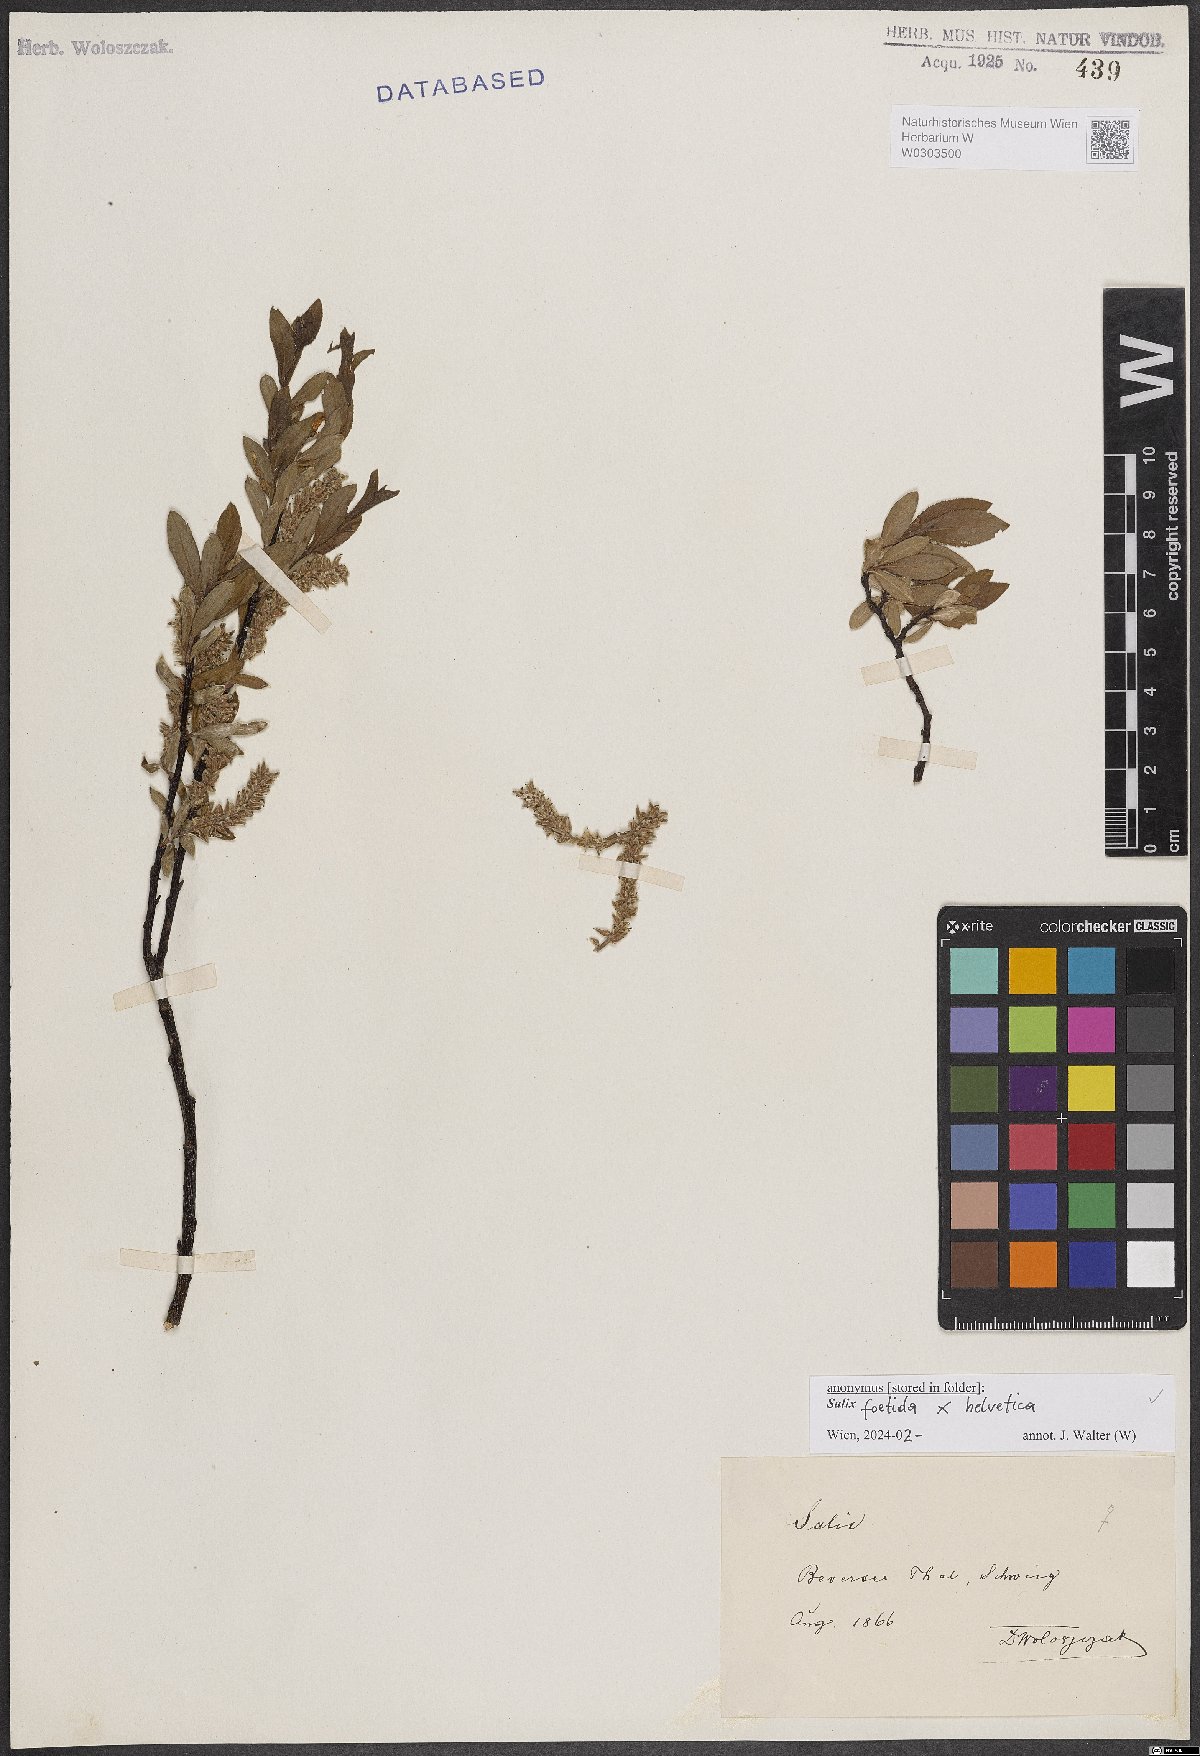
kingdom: Plantae
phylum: Tracheophyta
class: Magnoliopsida
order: Malpighiales
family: Salicaceae
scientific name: Salicaceae
